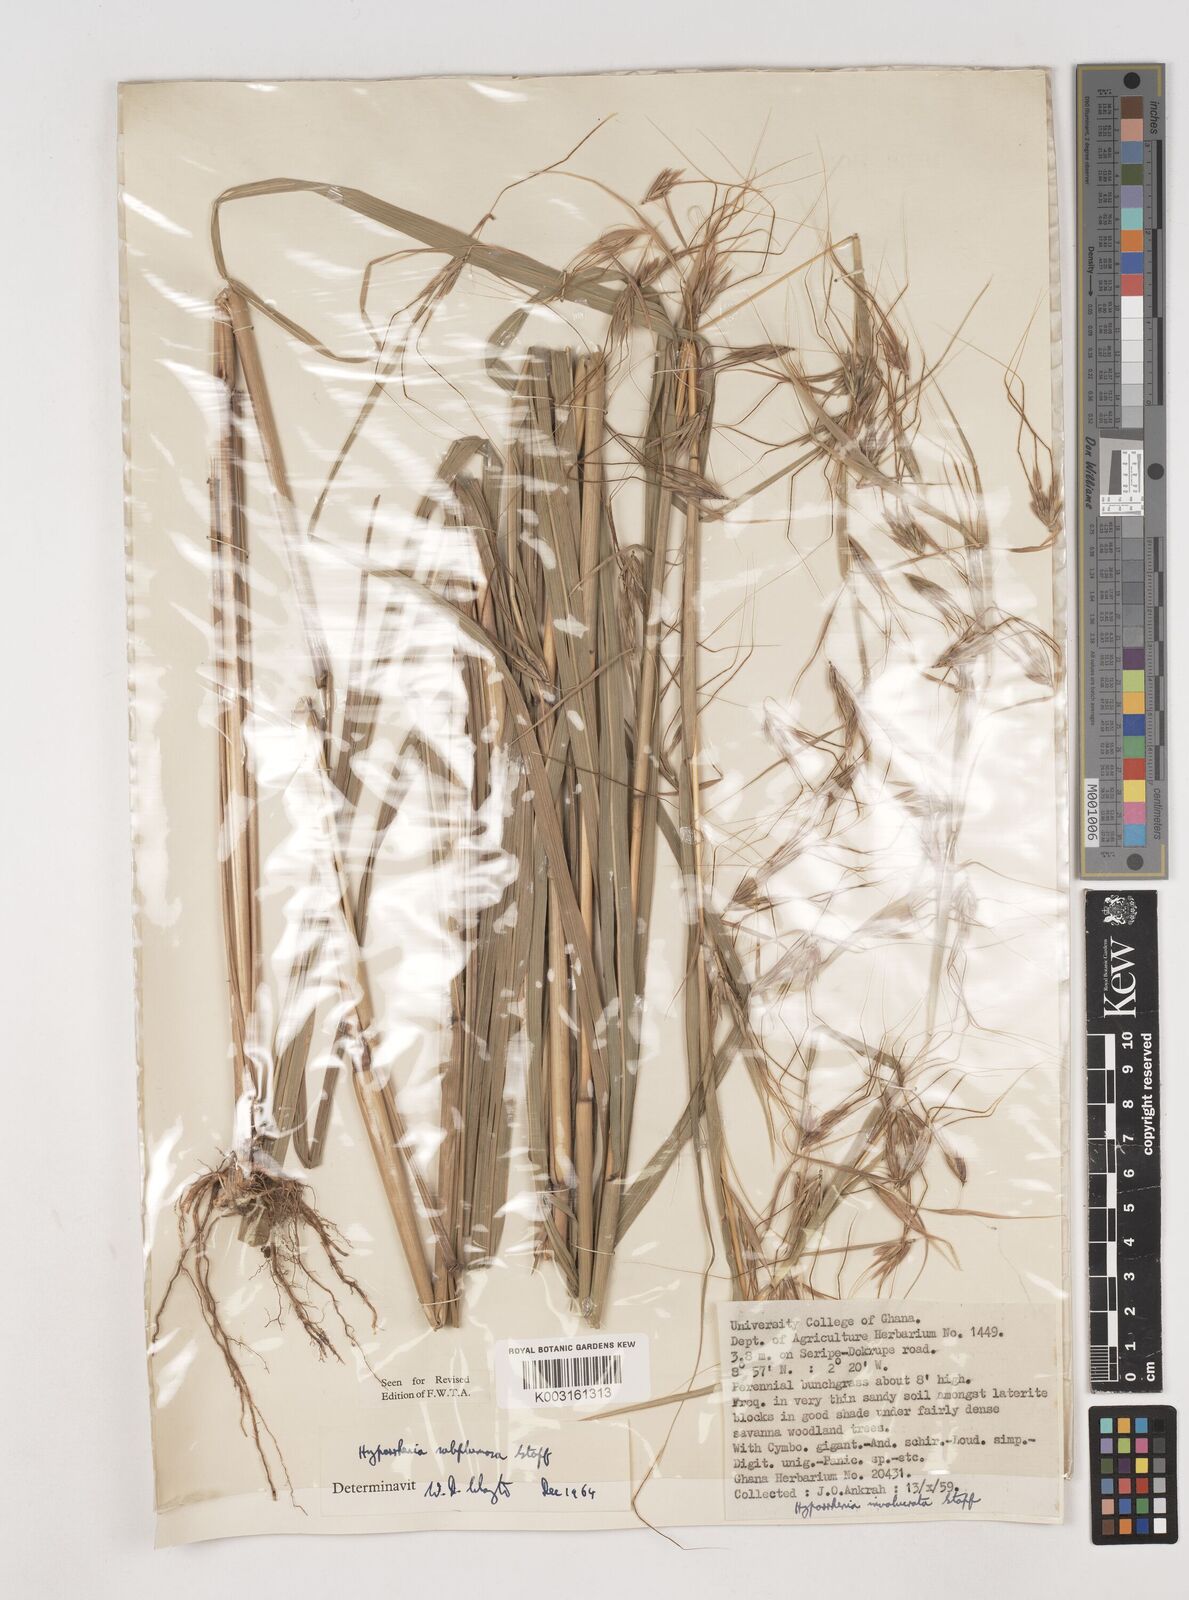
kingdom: Plantae
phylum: Tracheophyta
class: Liliopsida
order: Poales
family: Poaceae
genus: Hyparrhenia
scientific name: Hyparrhenia
